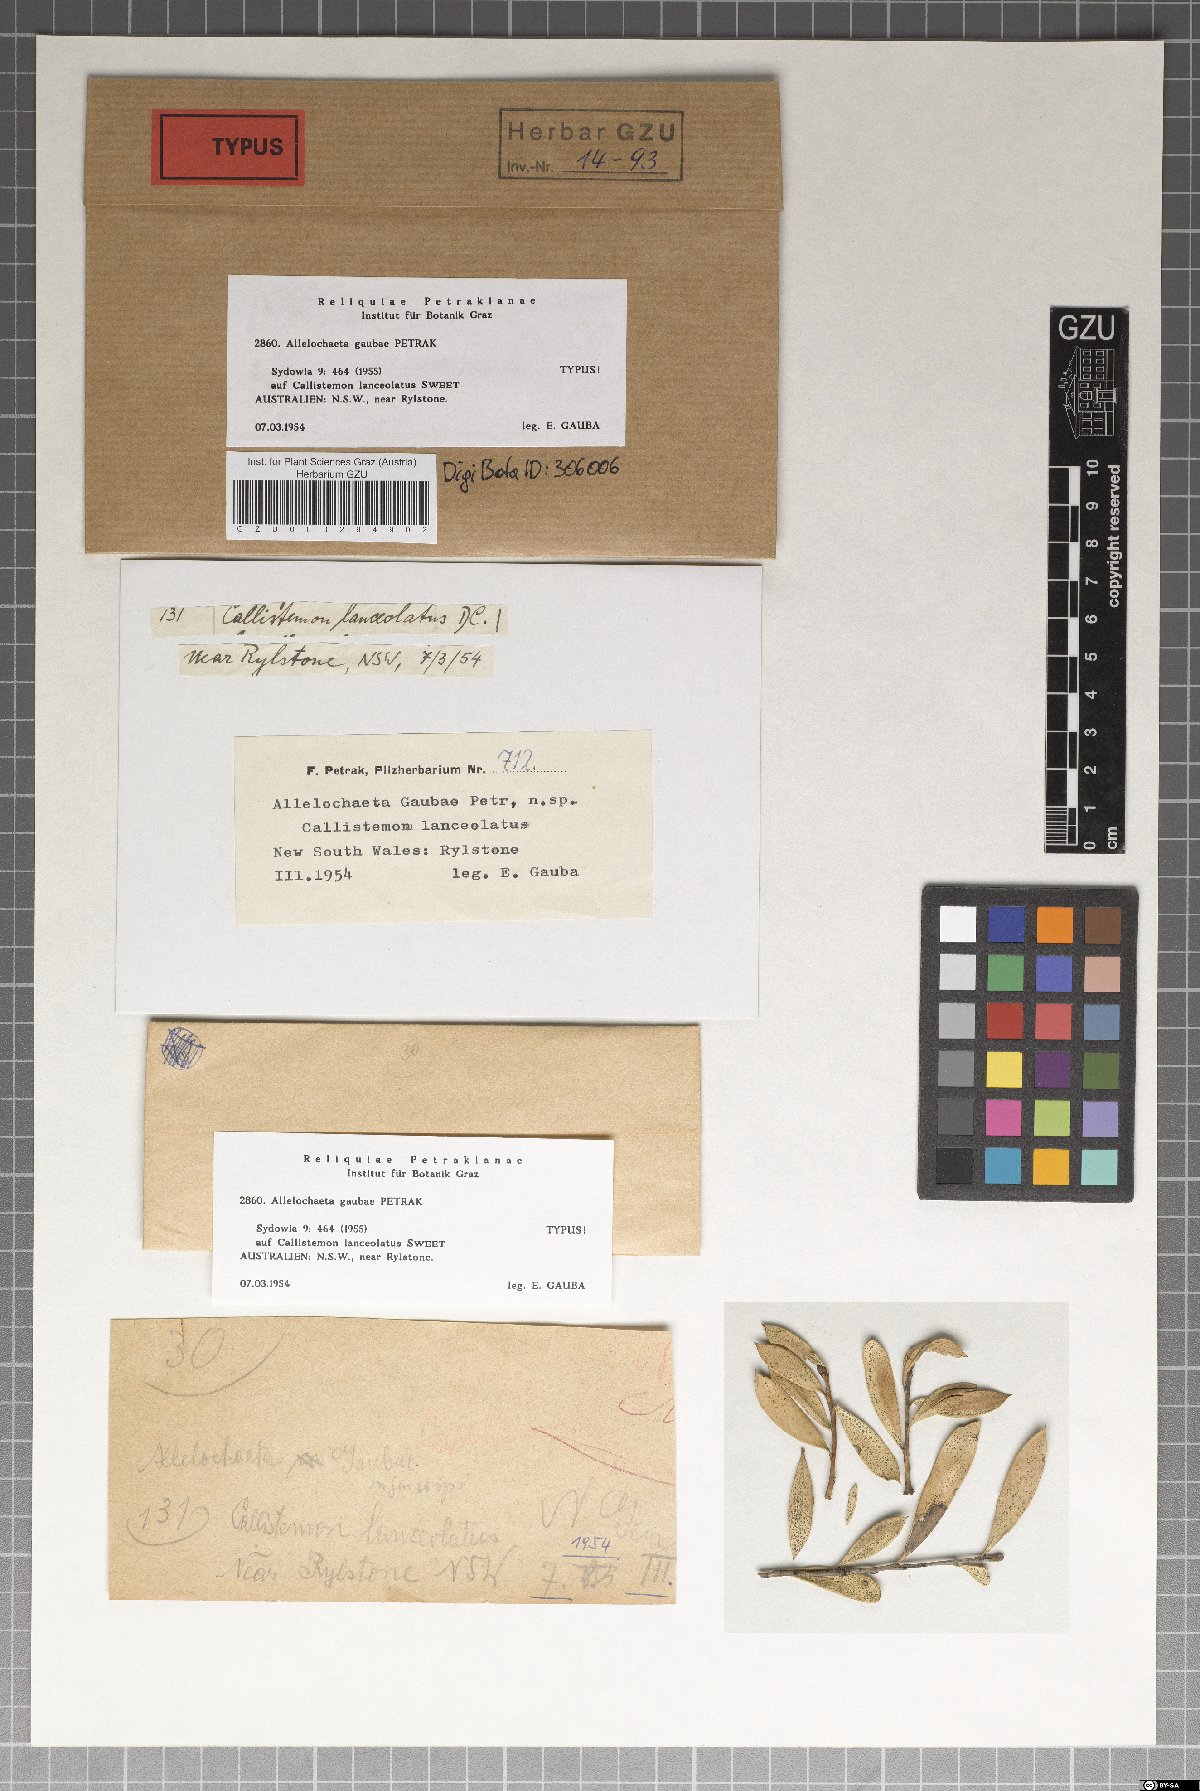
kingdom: Fungi
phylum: Ascomycota
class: Sordariomycetes
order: Amphisphaeriales
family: Sporocadaceae
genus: Allelochaeta
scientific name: Allelochaeta gaubae
